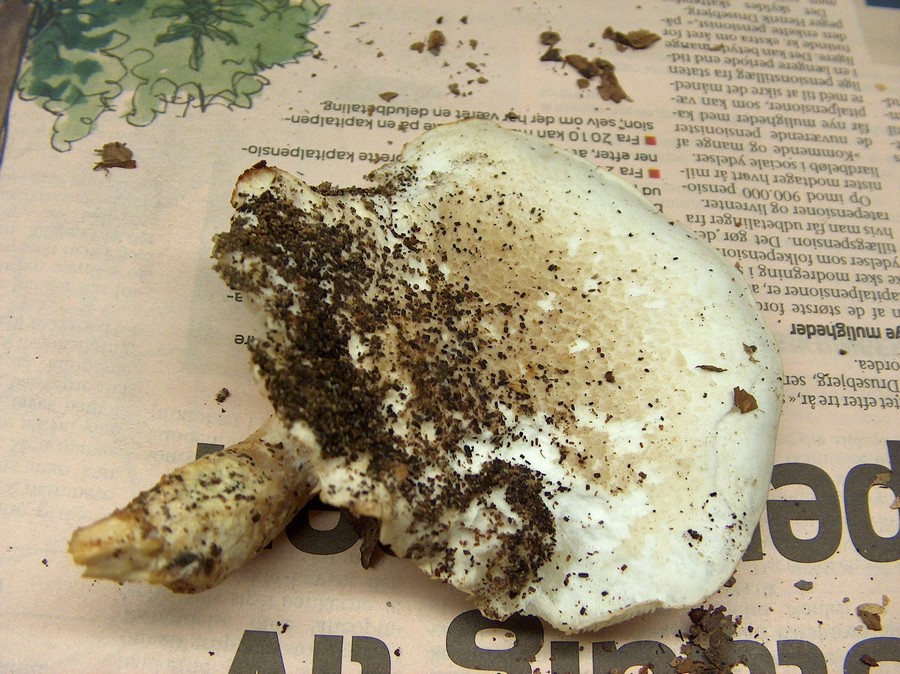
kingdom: Fungi
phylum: Basidiomycota
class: Agaricomycetes
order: Agaricales
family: Pleurotaceae
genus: Pleurotus
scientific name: Pleurotus dryinus
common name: korkagtig østershat
